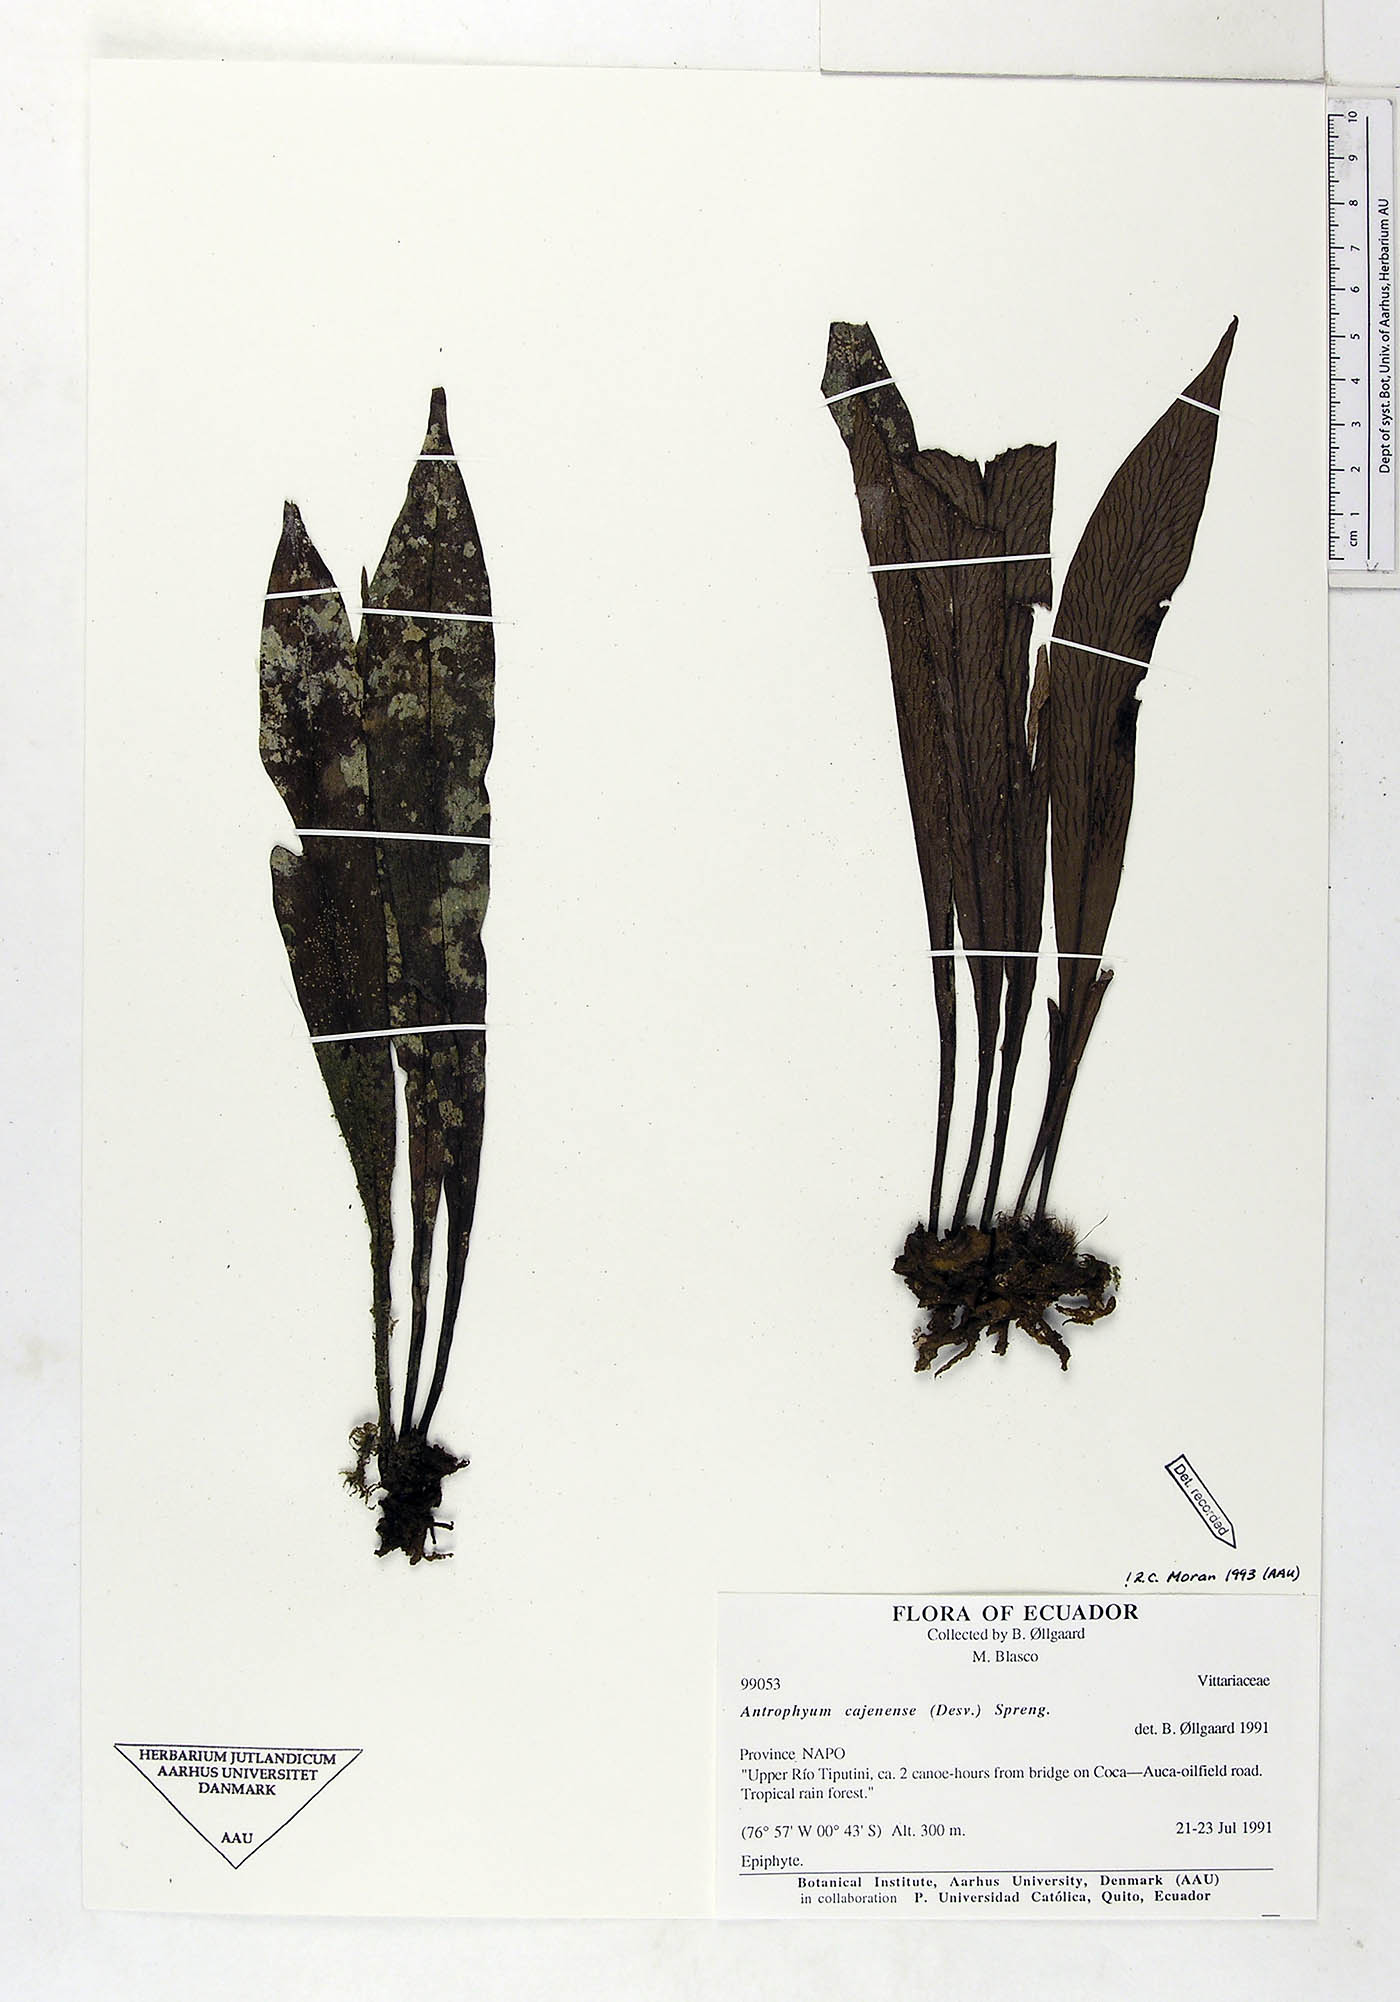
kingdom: Plantae
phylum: Tracheophyta
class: Polypodiopsida
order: Polypodiales
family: Pteridaceae
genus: Polytaenium
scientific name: Polytaenium cajenense
